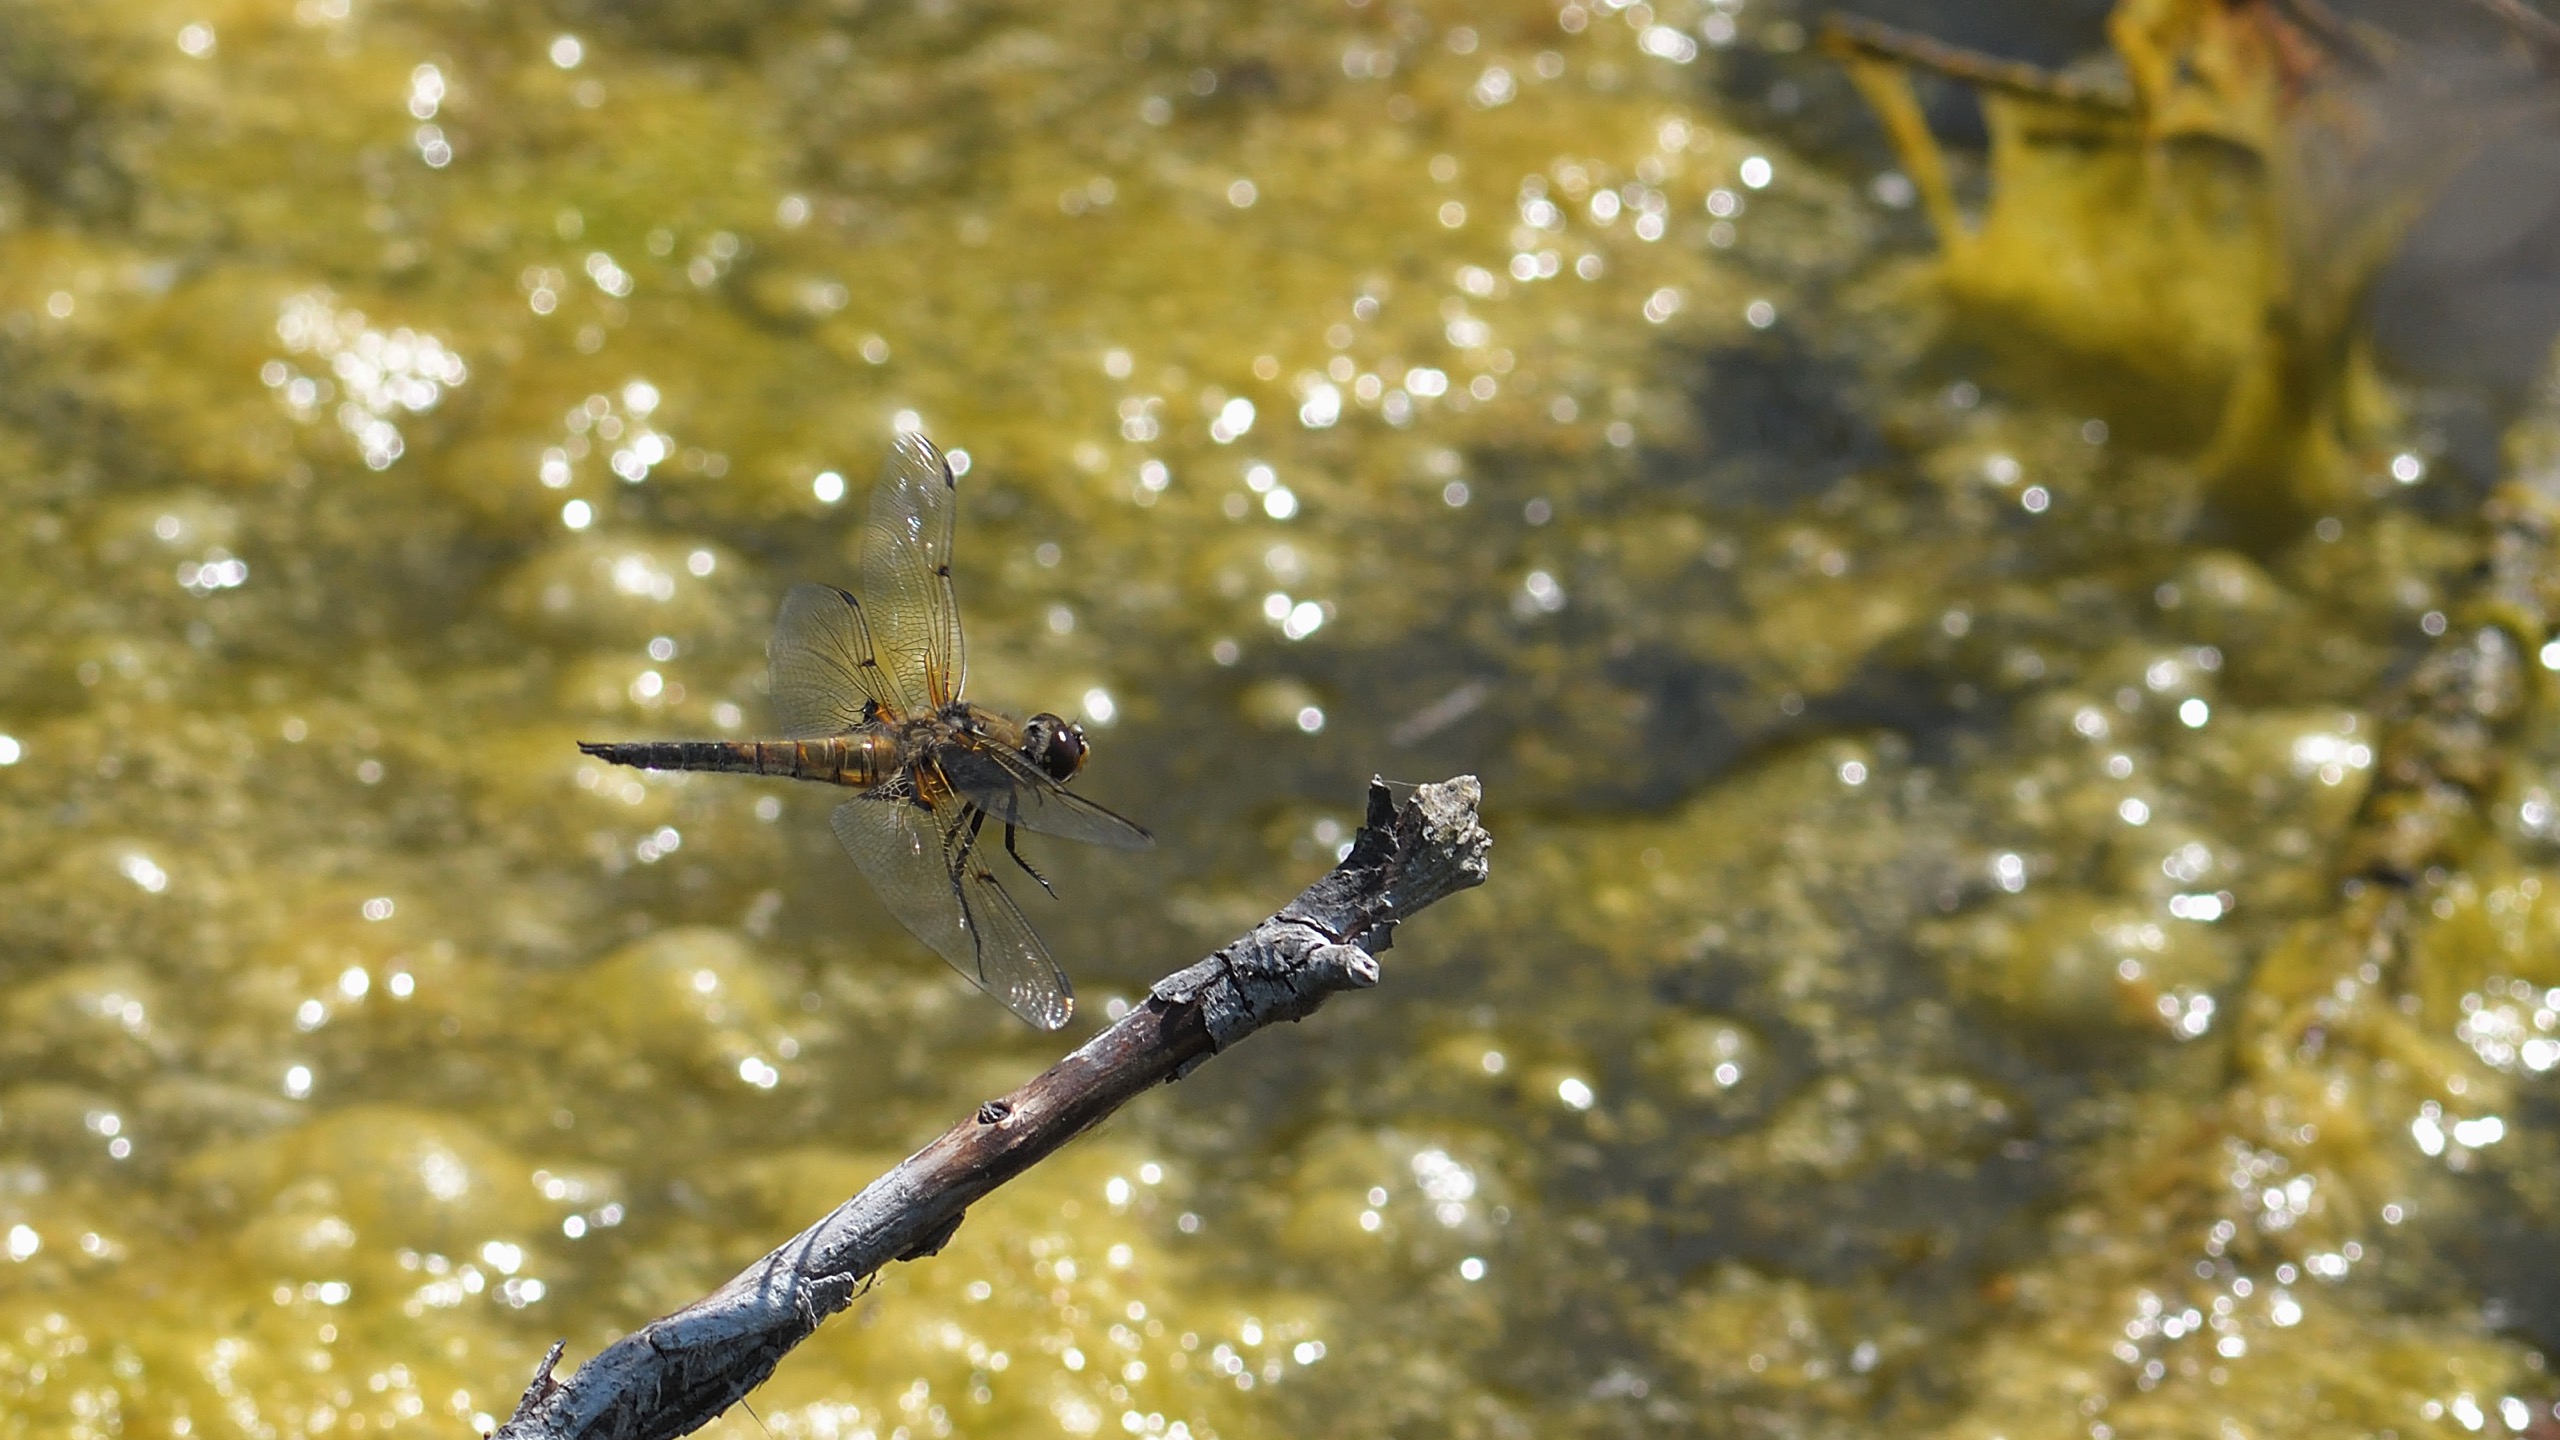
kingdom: Animalia
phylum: Arthropoda
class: Insecta
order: Odonata
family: Libellulidae
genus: Libellula
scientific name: Libellula quadrimaculata
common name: Fireplettet libel
